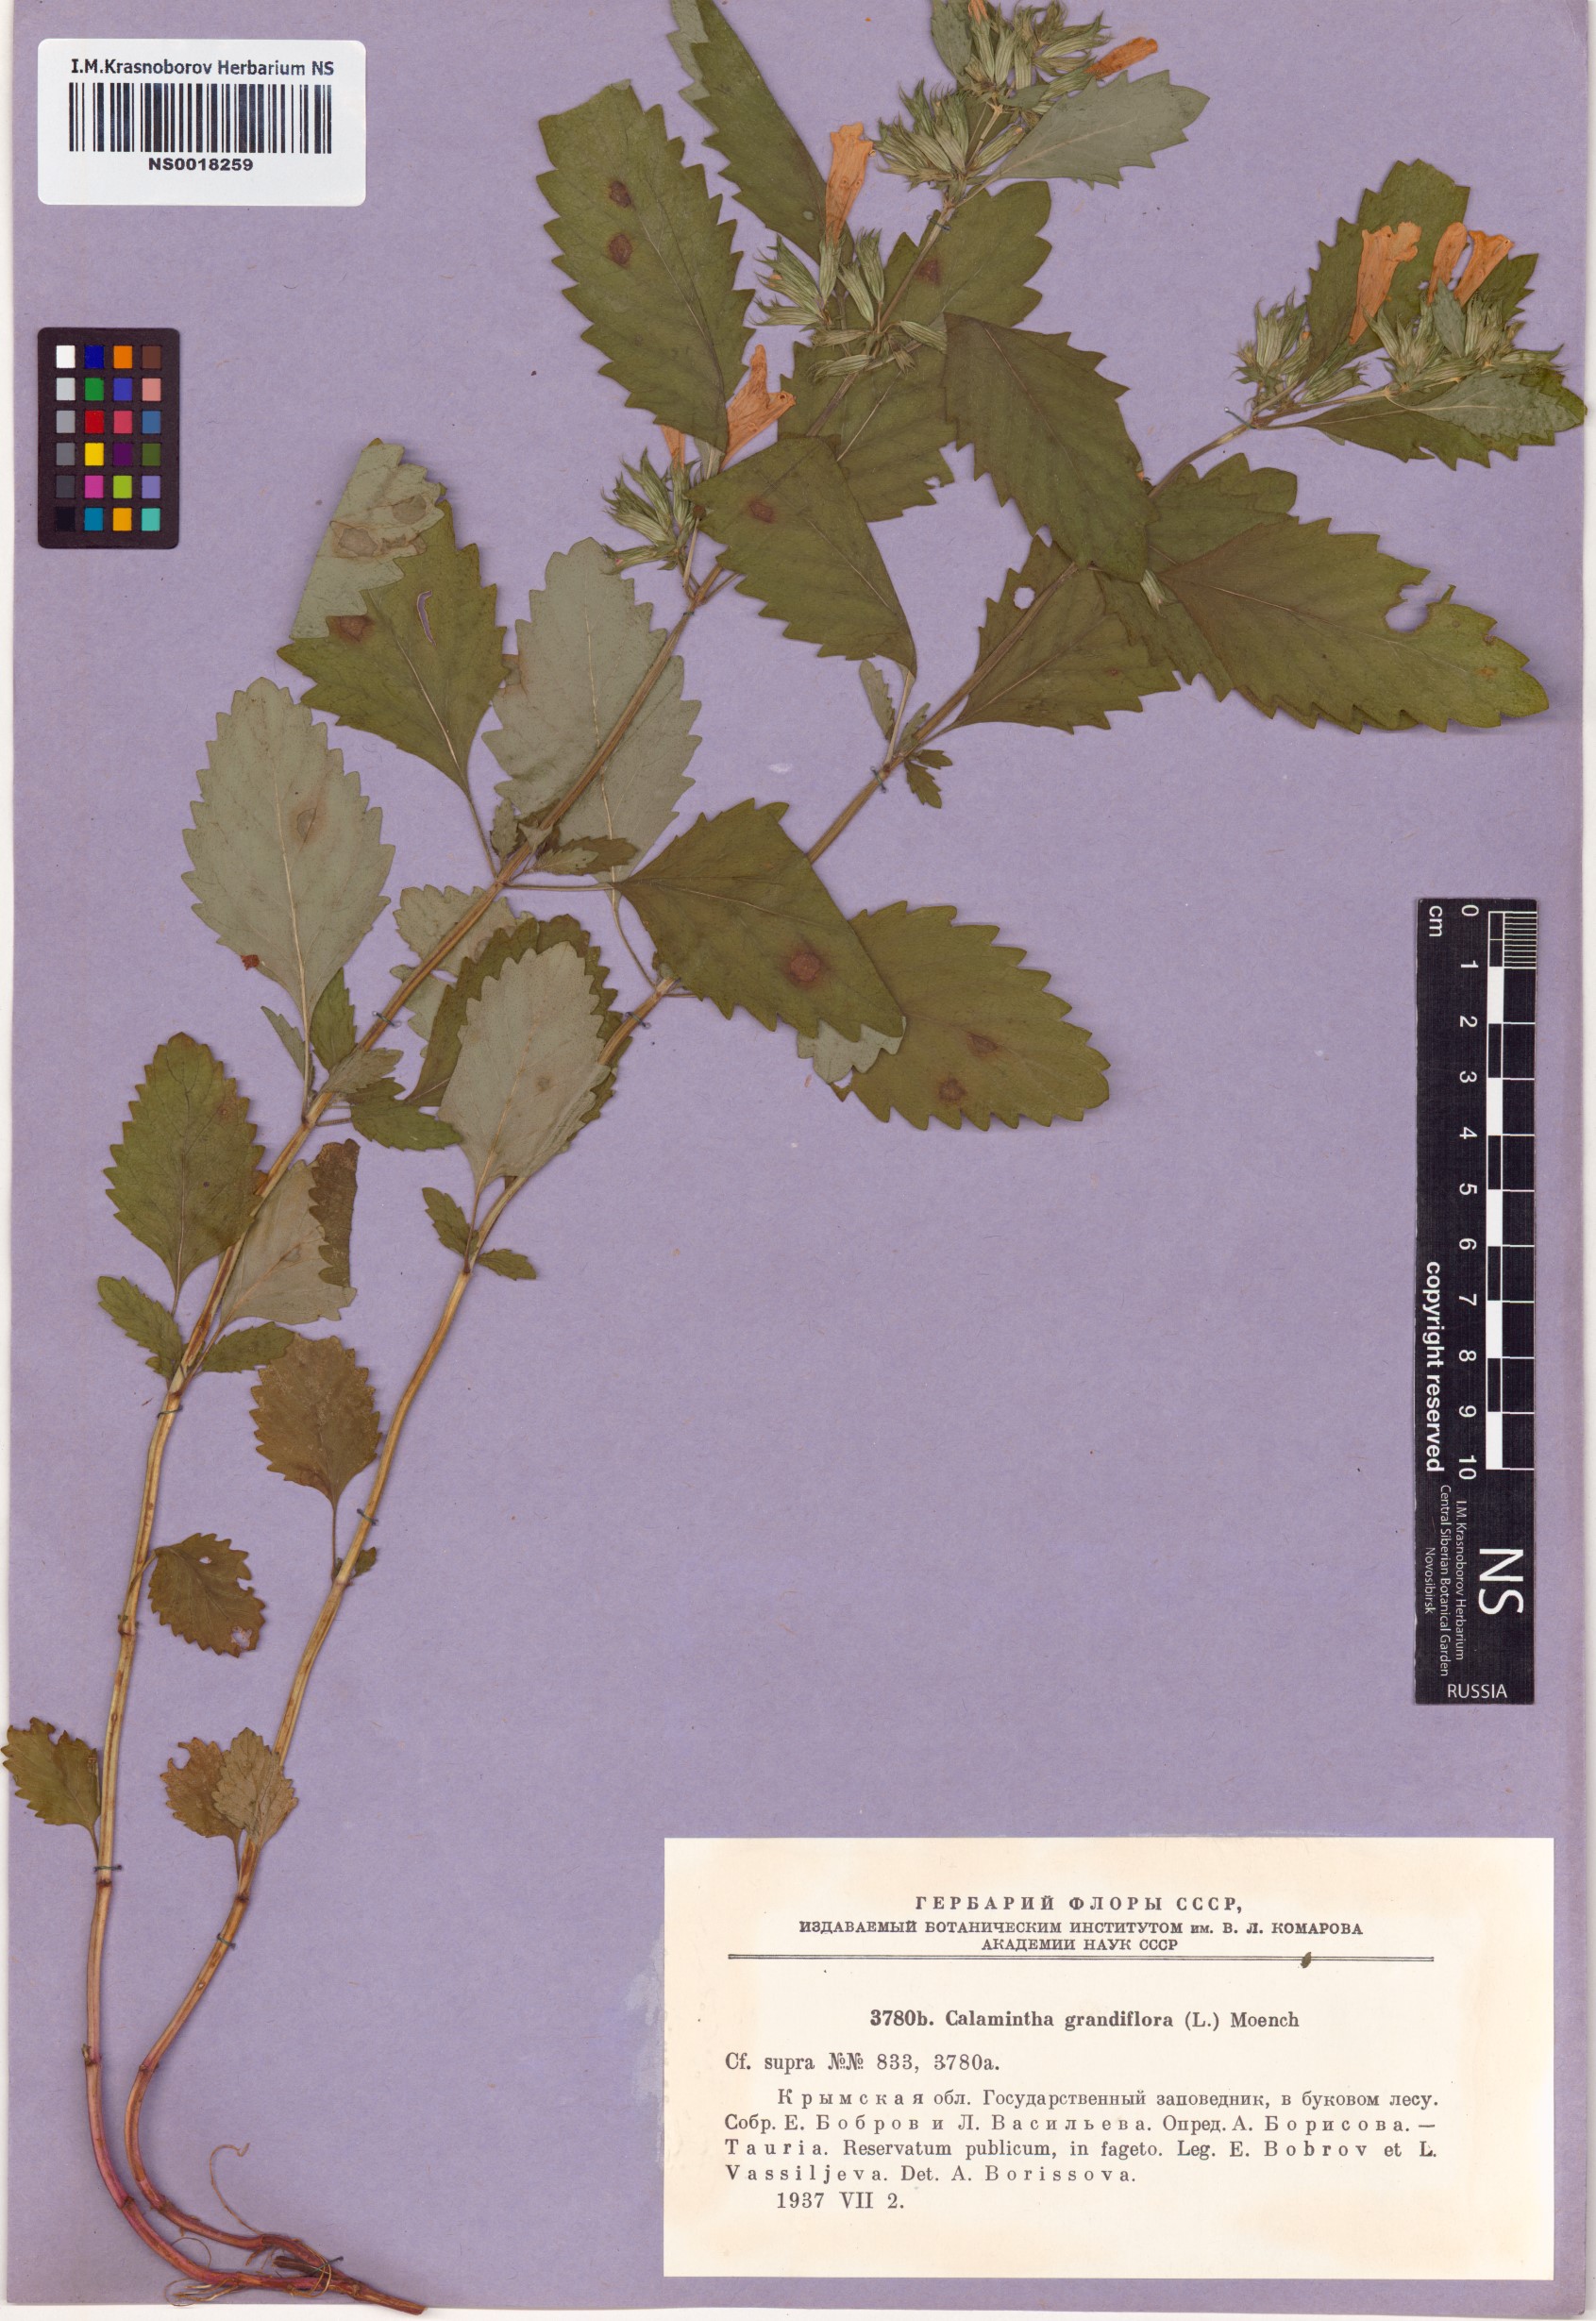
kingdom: Plantae
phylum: Tracheophyta
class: Magnoliopsida
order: Lamiales
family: Lamiaceae
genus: Clinopodium
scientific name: Clinopodium grandiflorum
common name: Greater calamint
